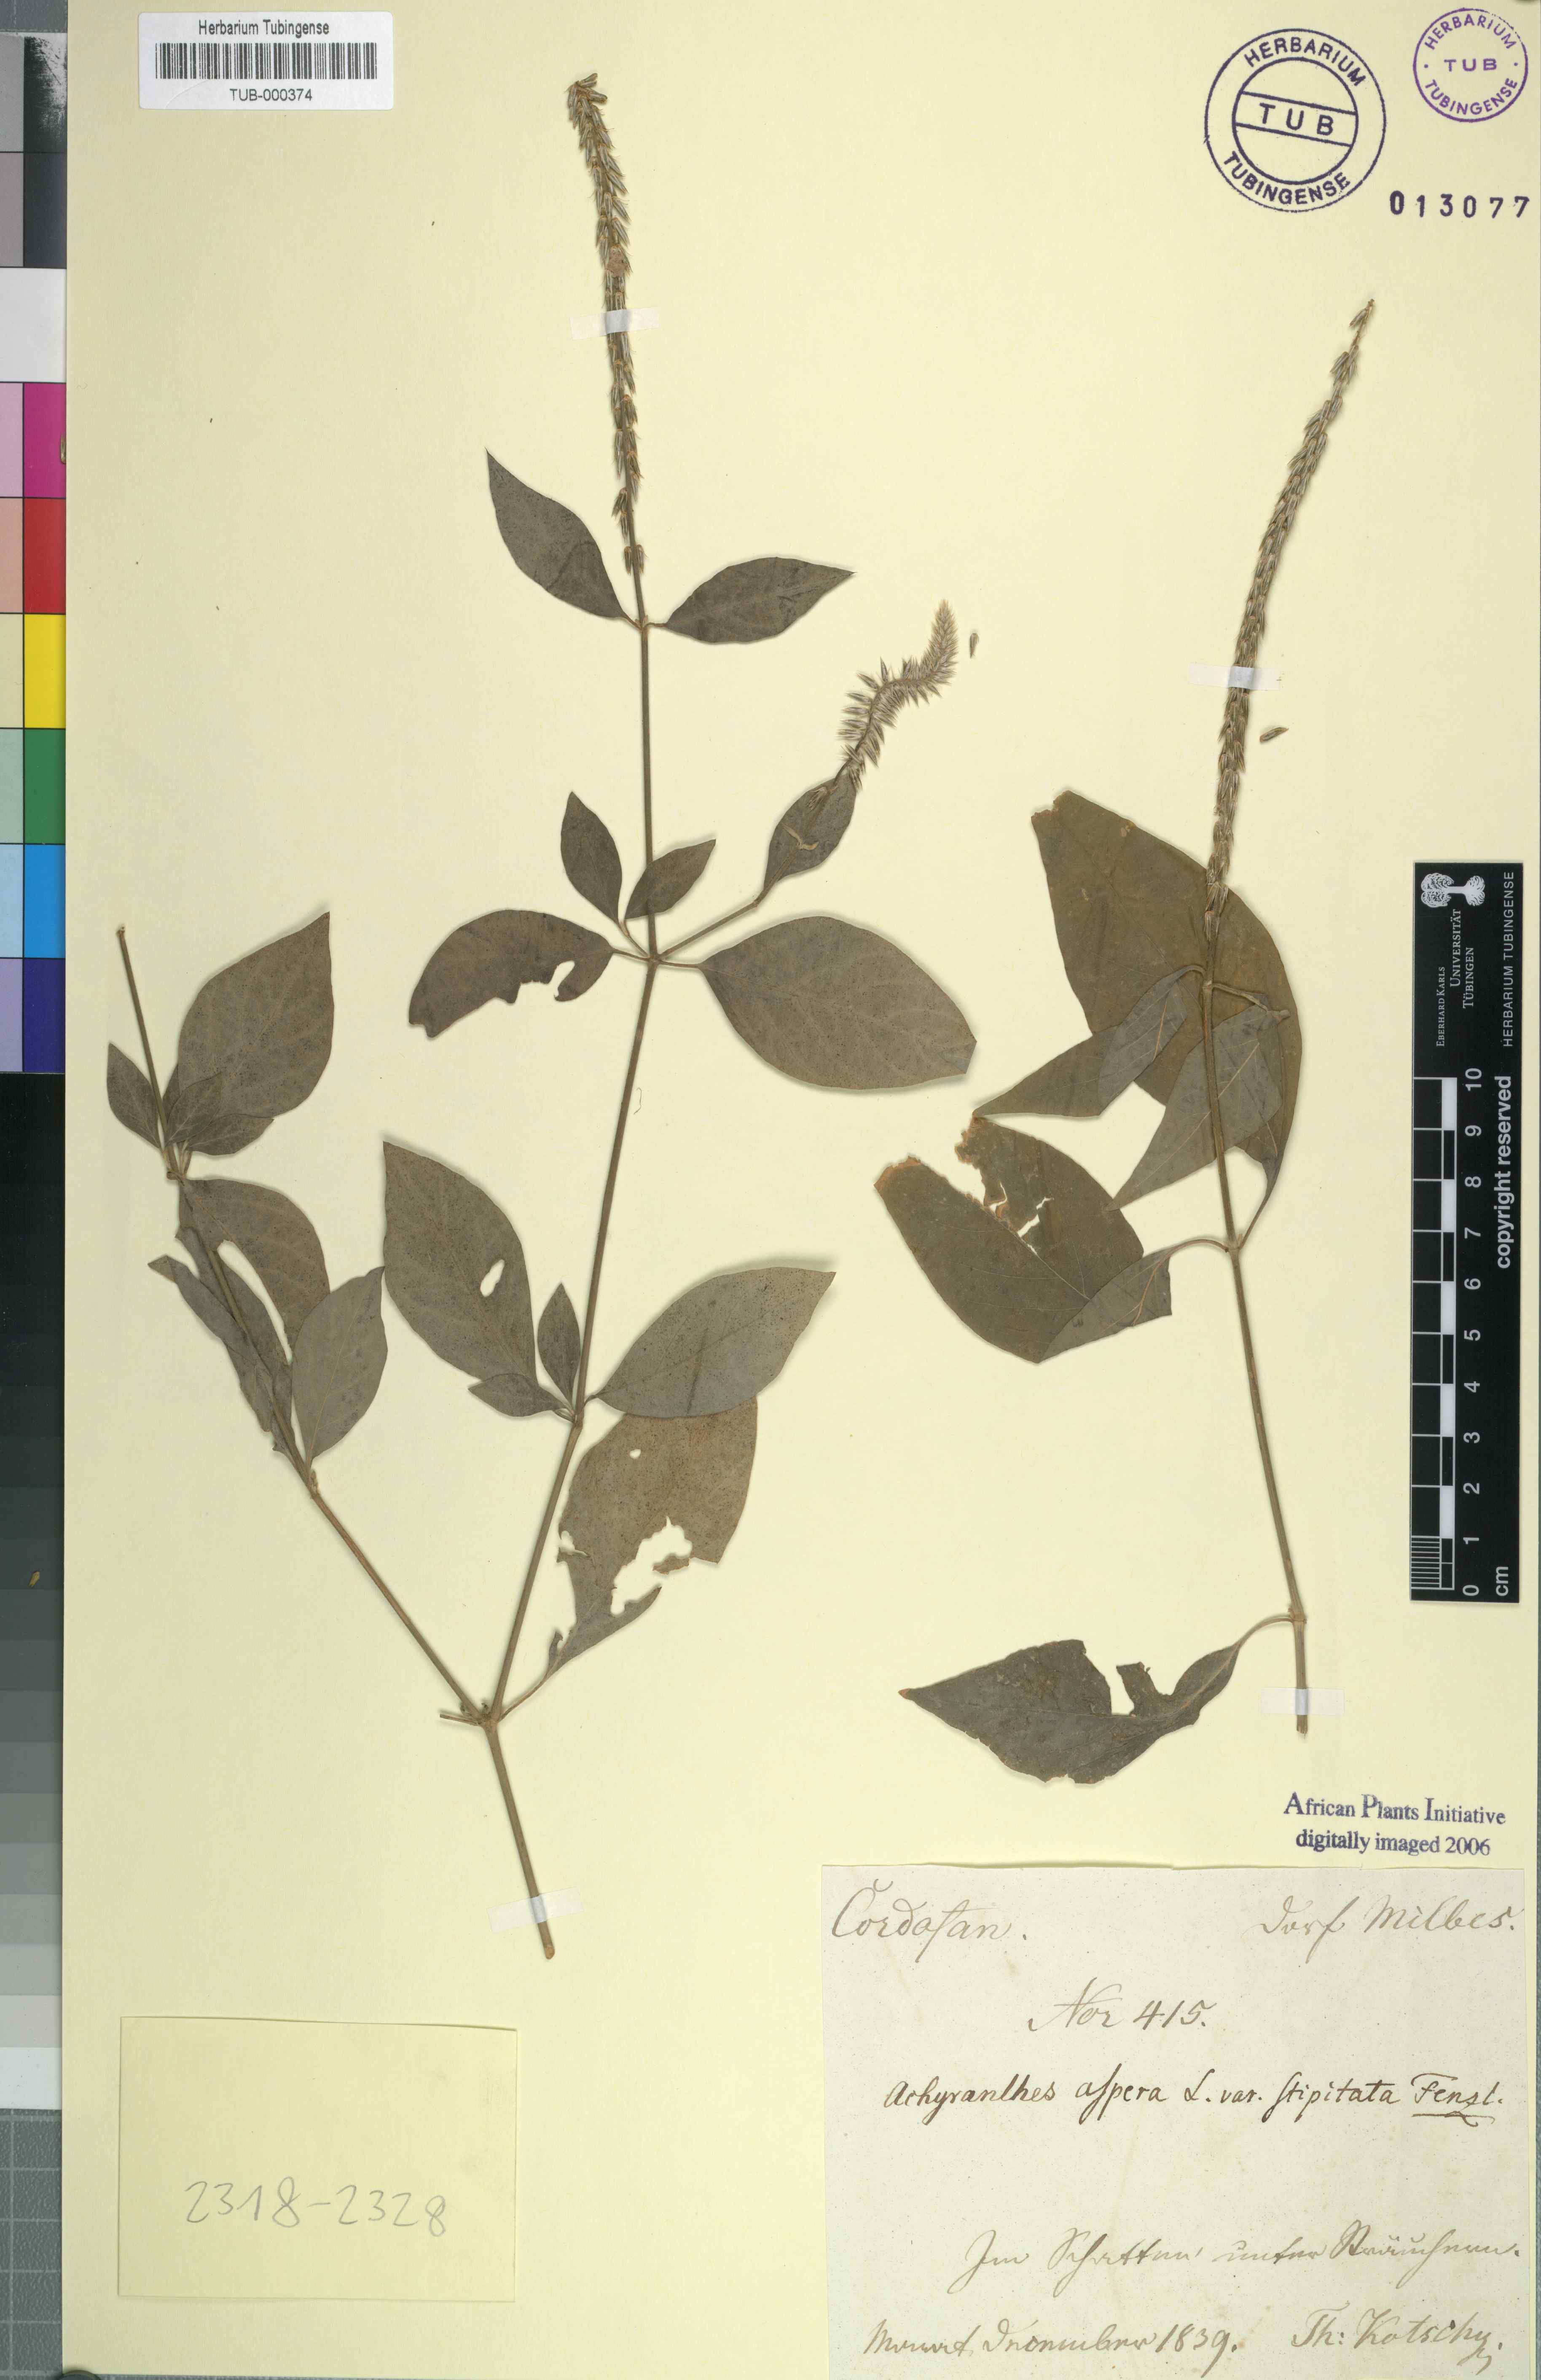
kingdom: Plantae
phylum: Tracheophyta
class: Magnoliopsida
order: Caryophyllales
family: Amaranthaceae
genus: Achyranthes
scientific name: Achyranthes aspera
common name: Devil's horsewhip
